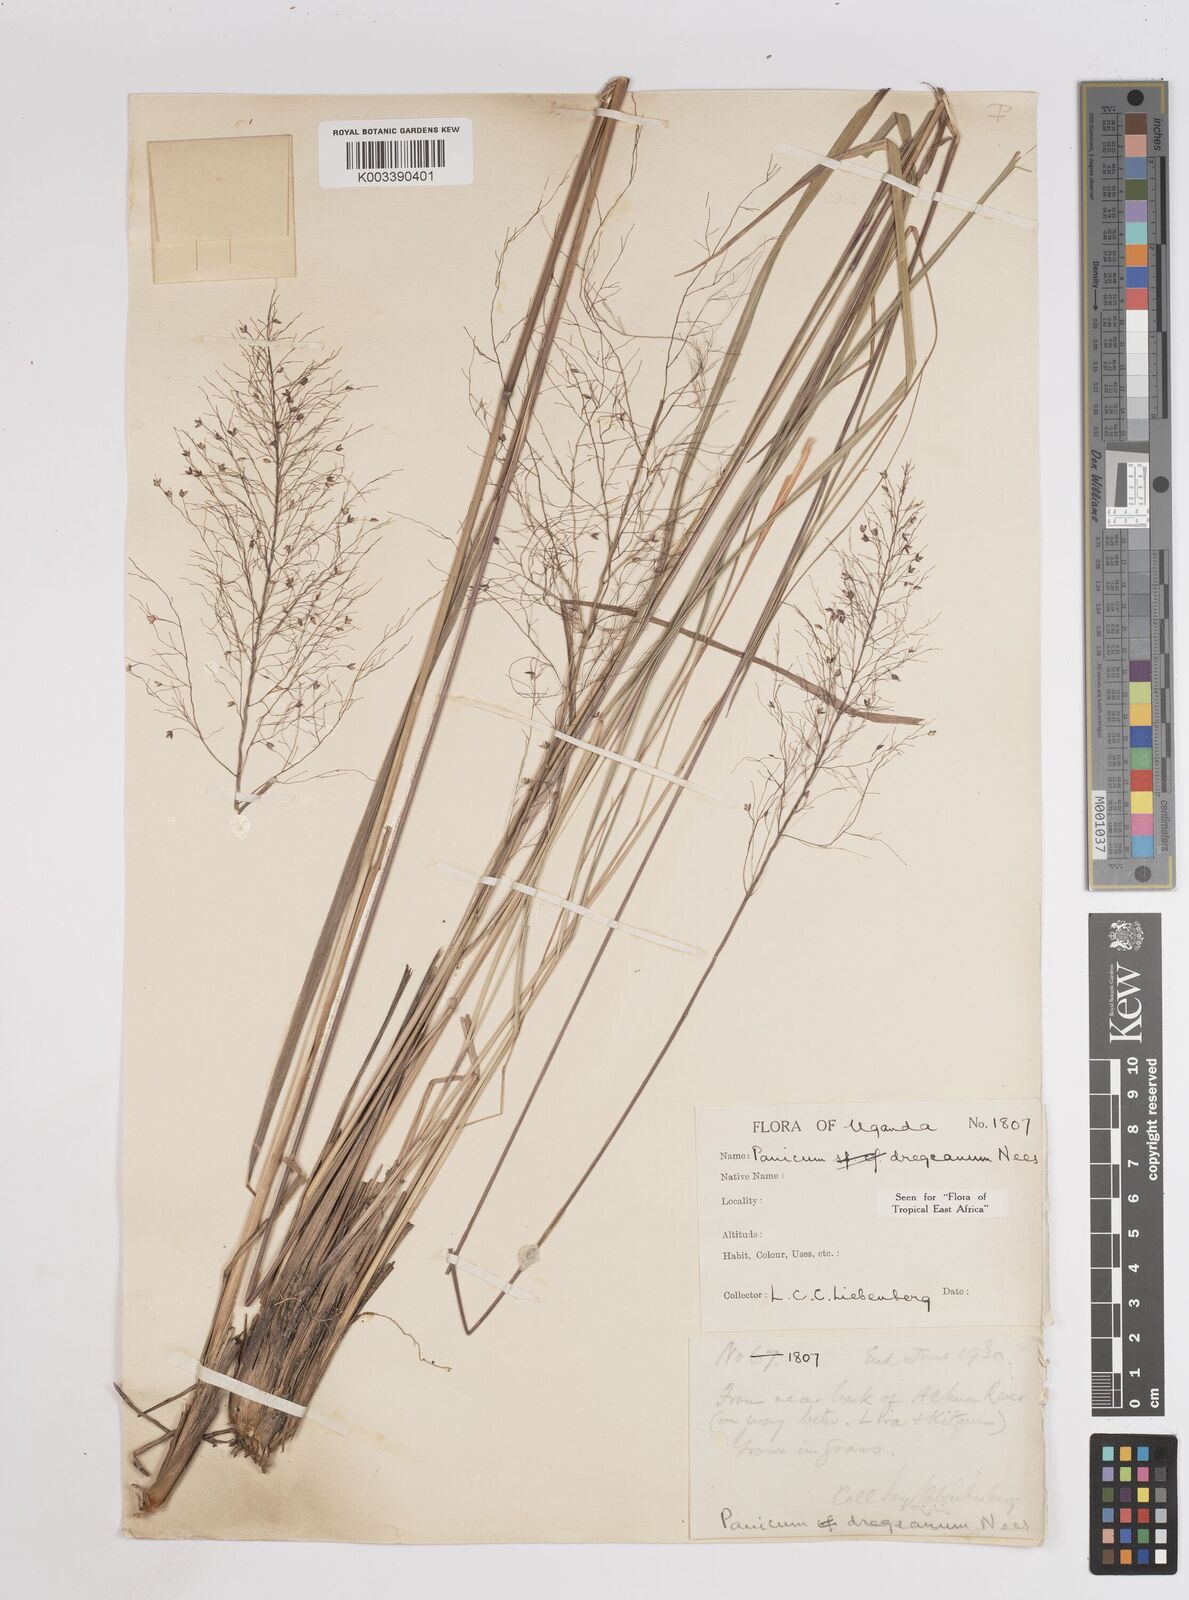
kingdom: Plantae
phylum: Tracheophyta
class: Liliopsida
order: Poales
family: Poaceae
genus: Panicum
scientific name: Panicum dregeanum
